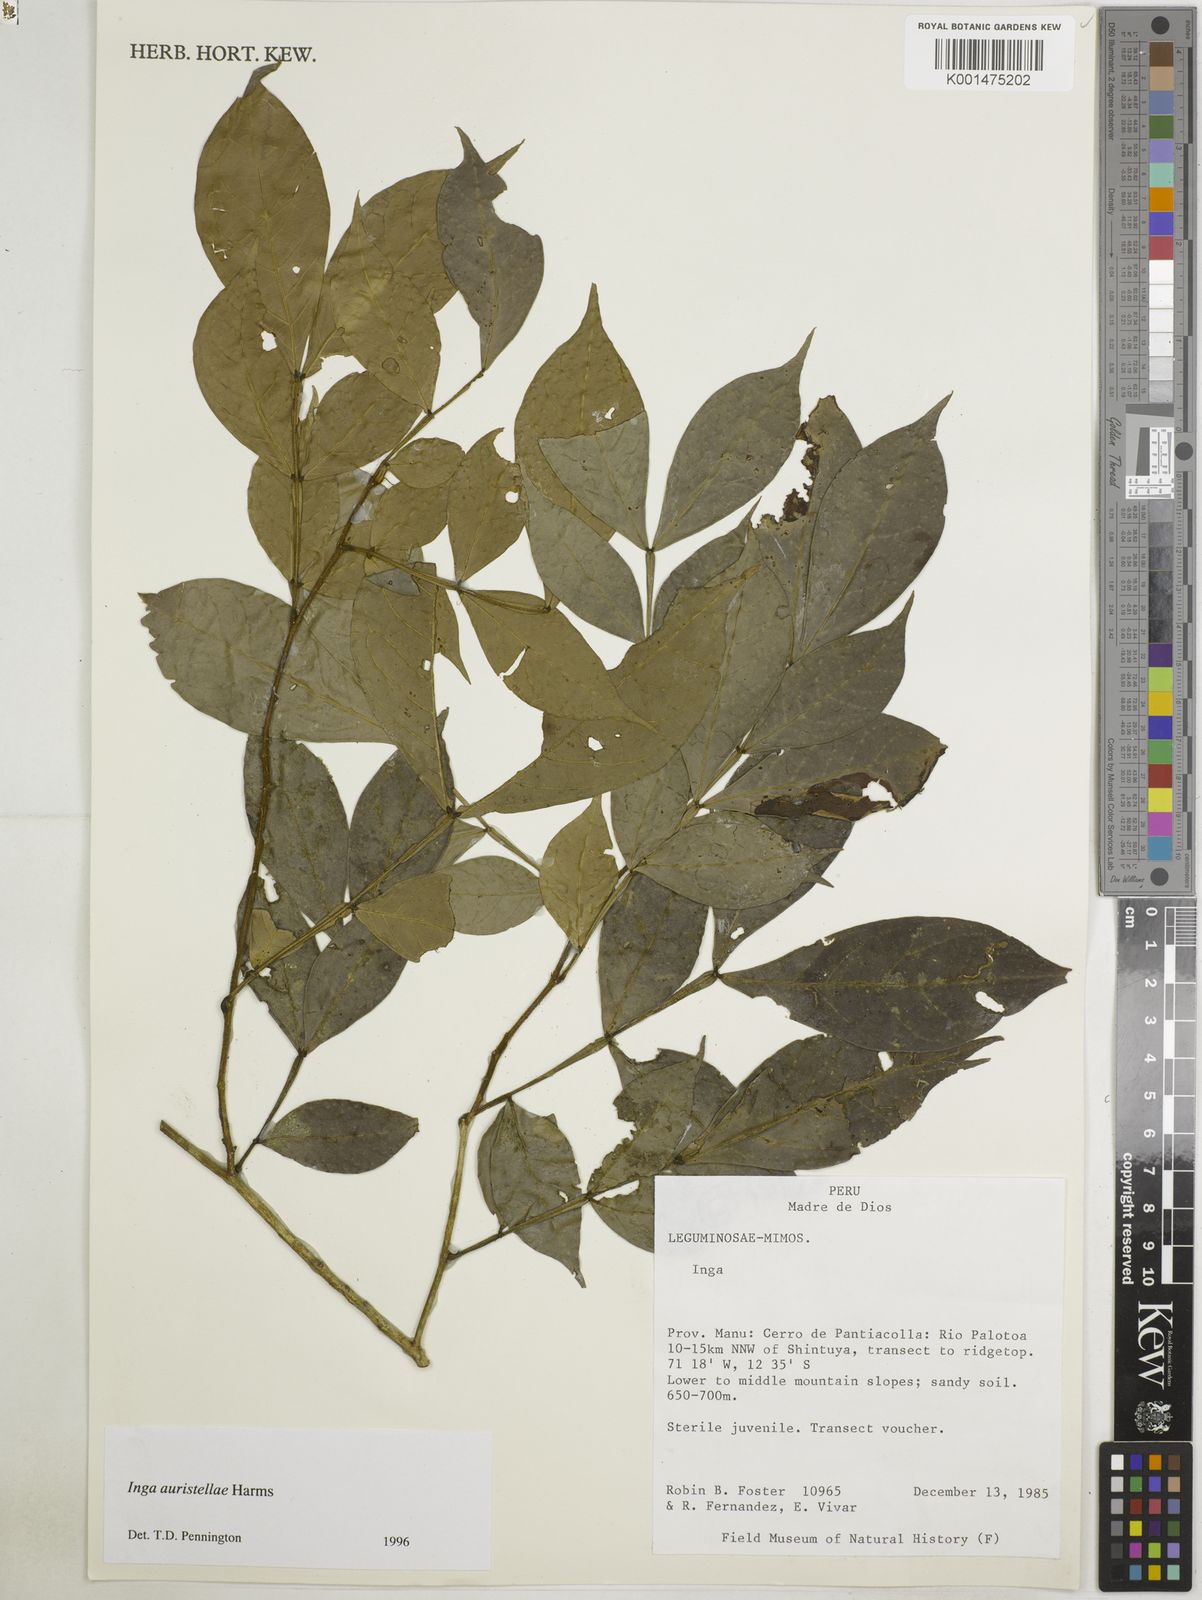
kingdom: Plantae
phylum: Tracheophyta
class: Magnoliopsida
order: Fabales
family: Fabaceae
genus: Inga
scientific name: Inga auristellae
